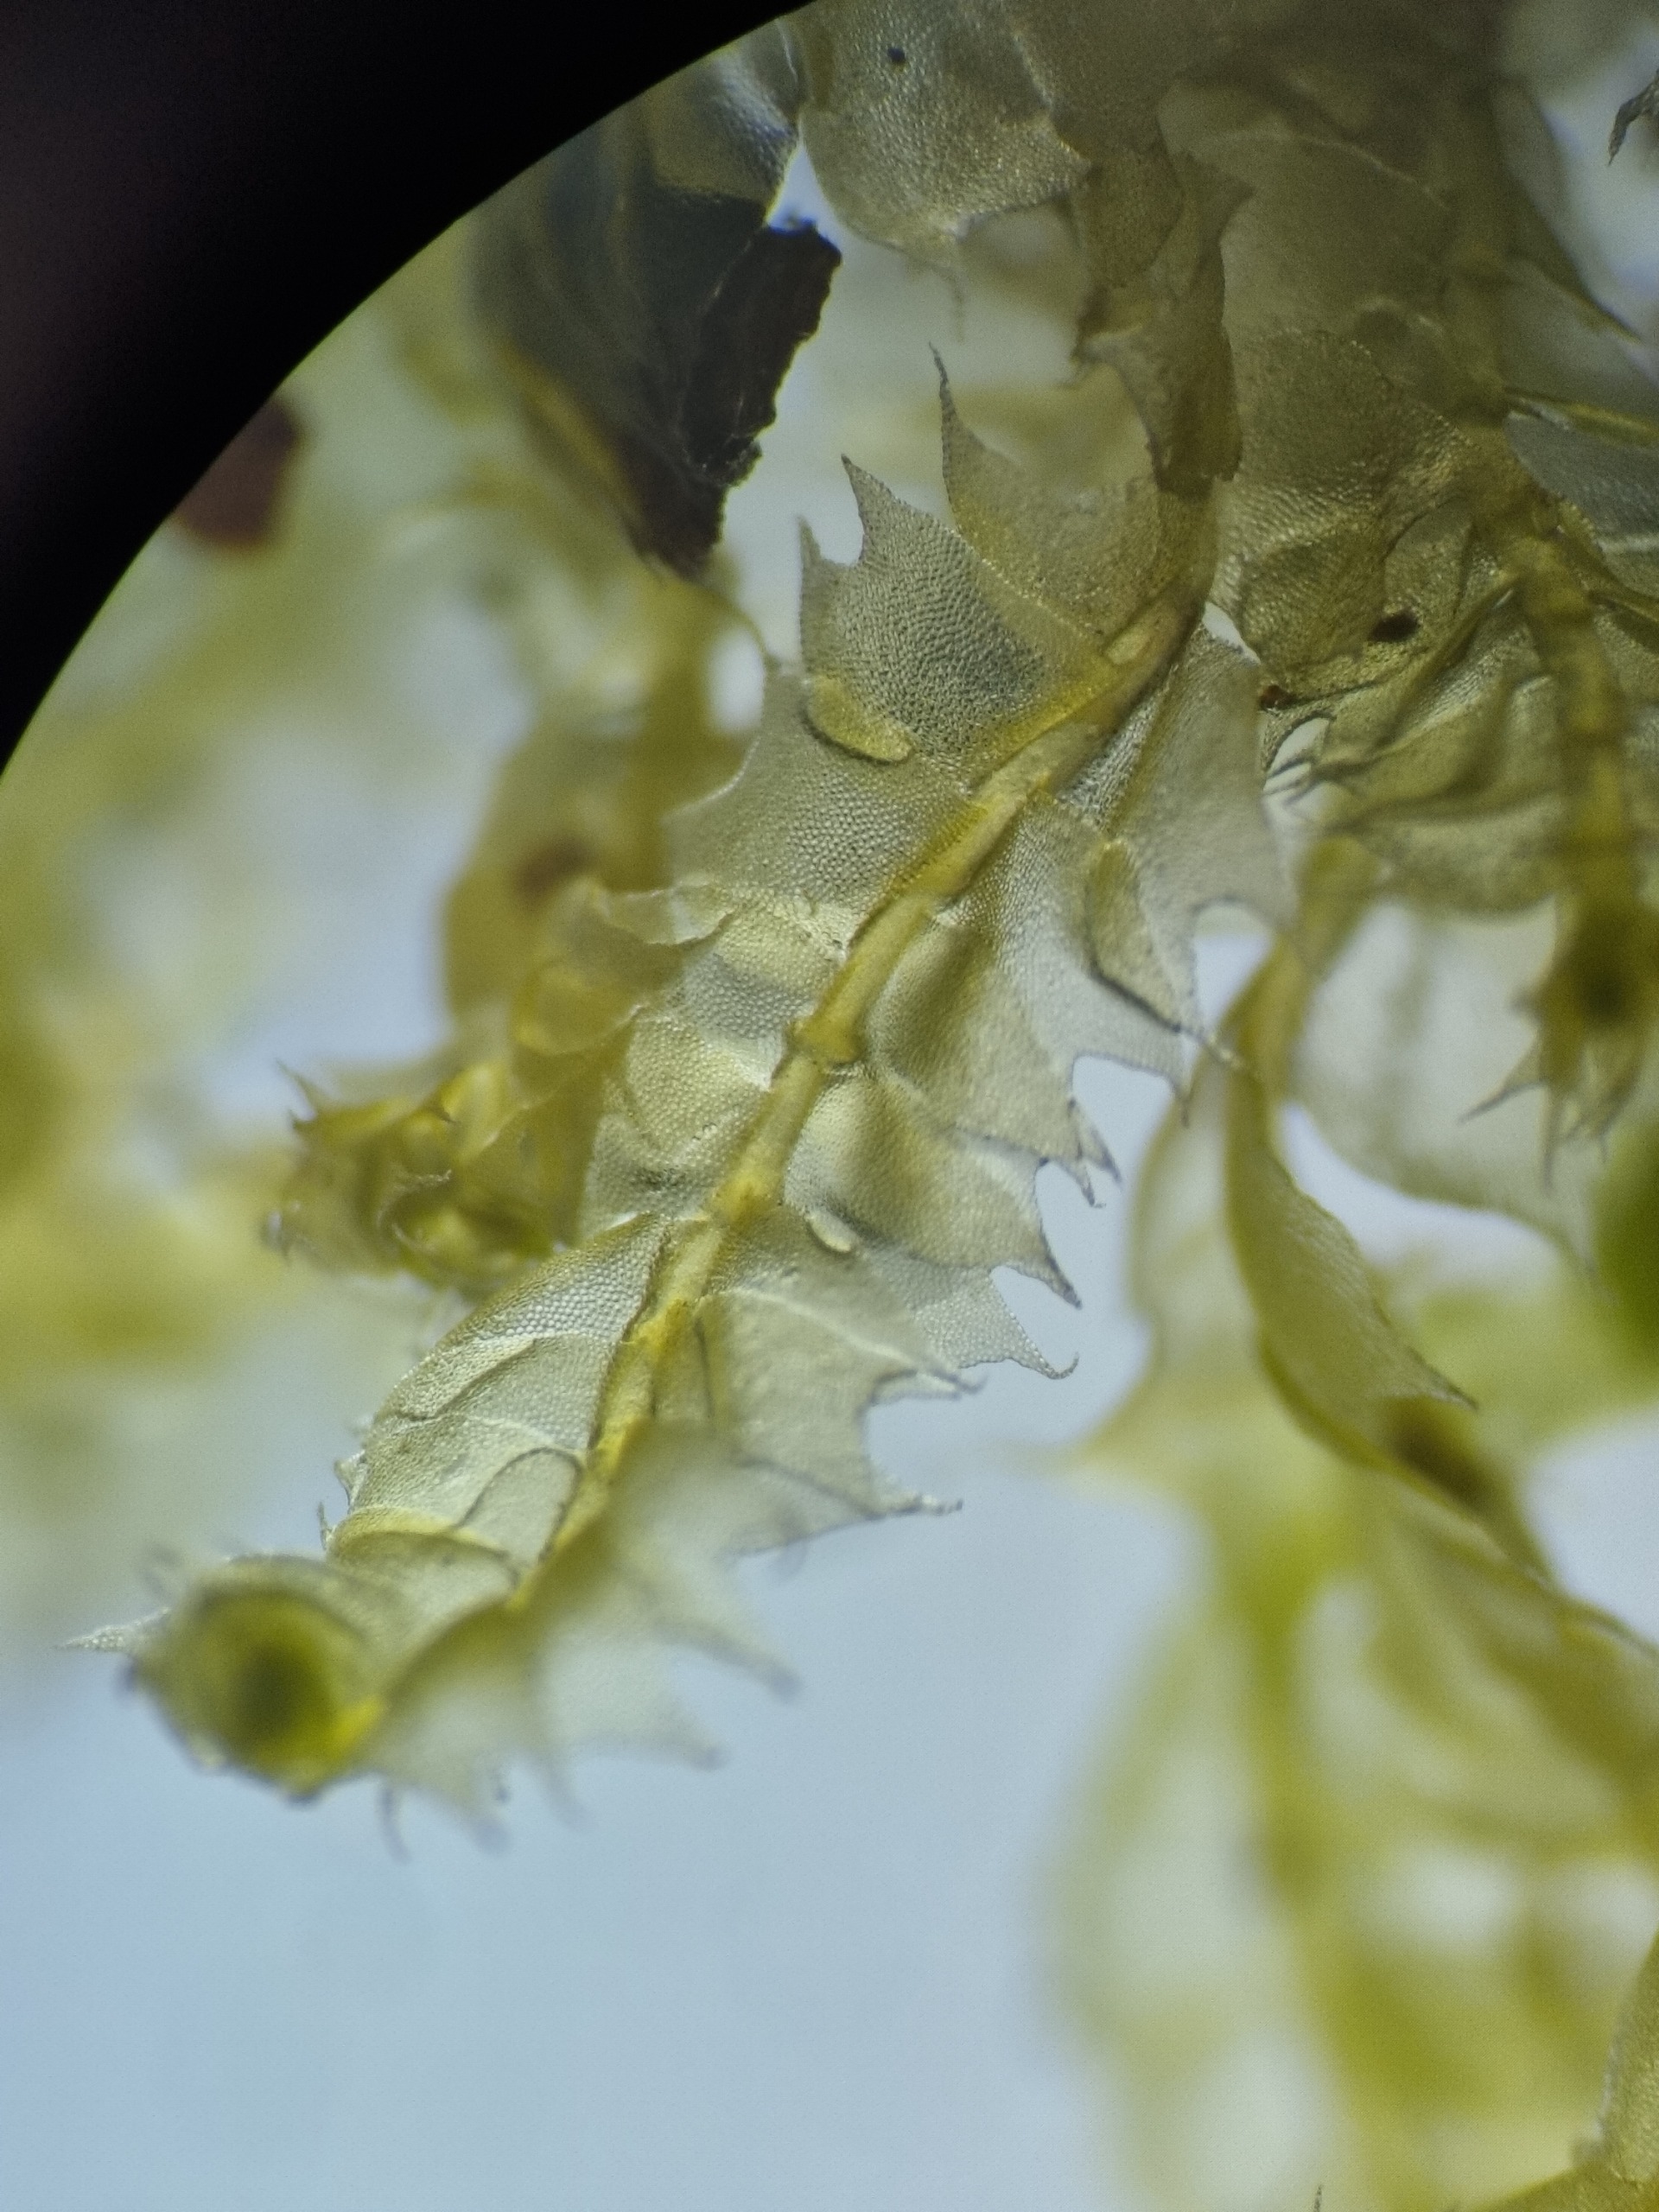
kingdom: Plantae
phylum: Marchantiophyta
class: Jungermanniopsida
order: Jungermanniales
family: Lophocoleaceae
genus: Lophocolea
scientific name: Lophocolea bidentata
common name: Sylspidset kamsvøb
